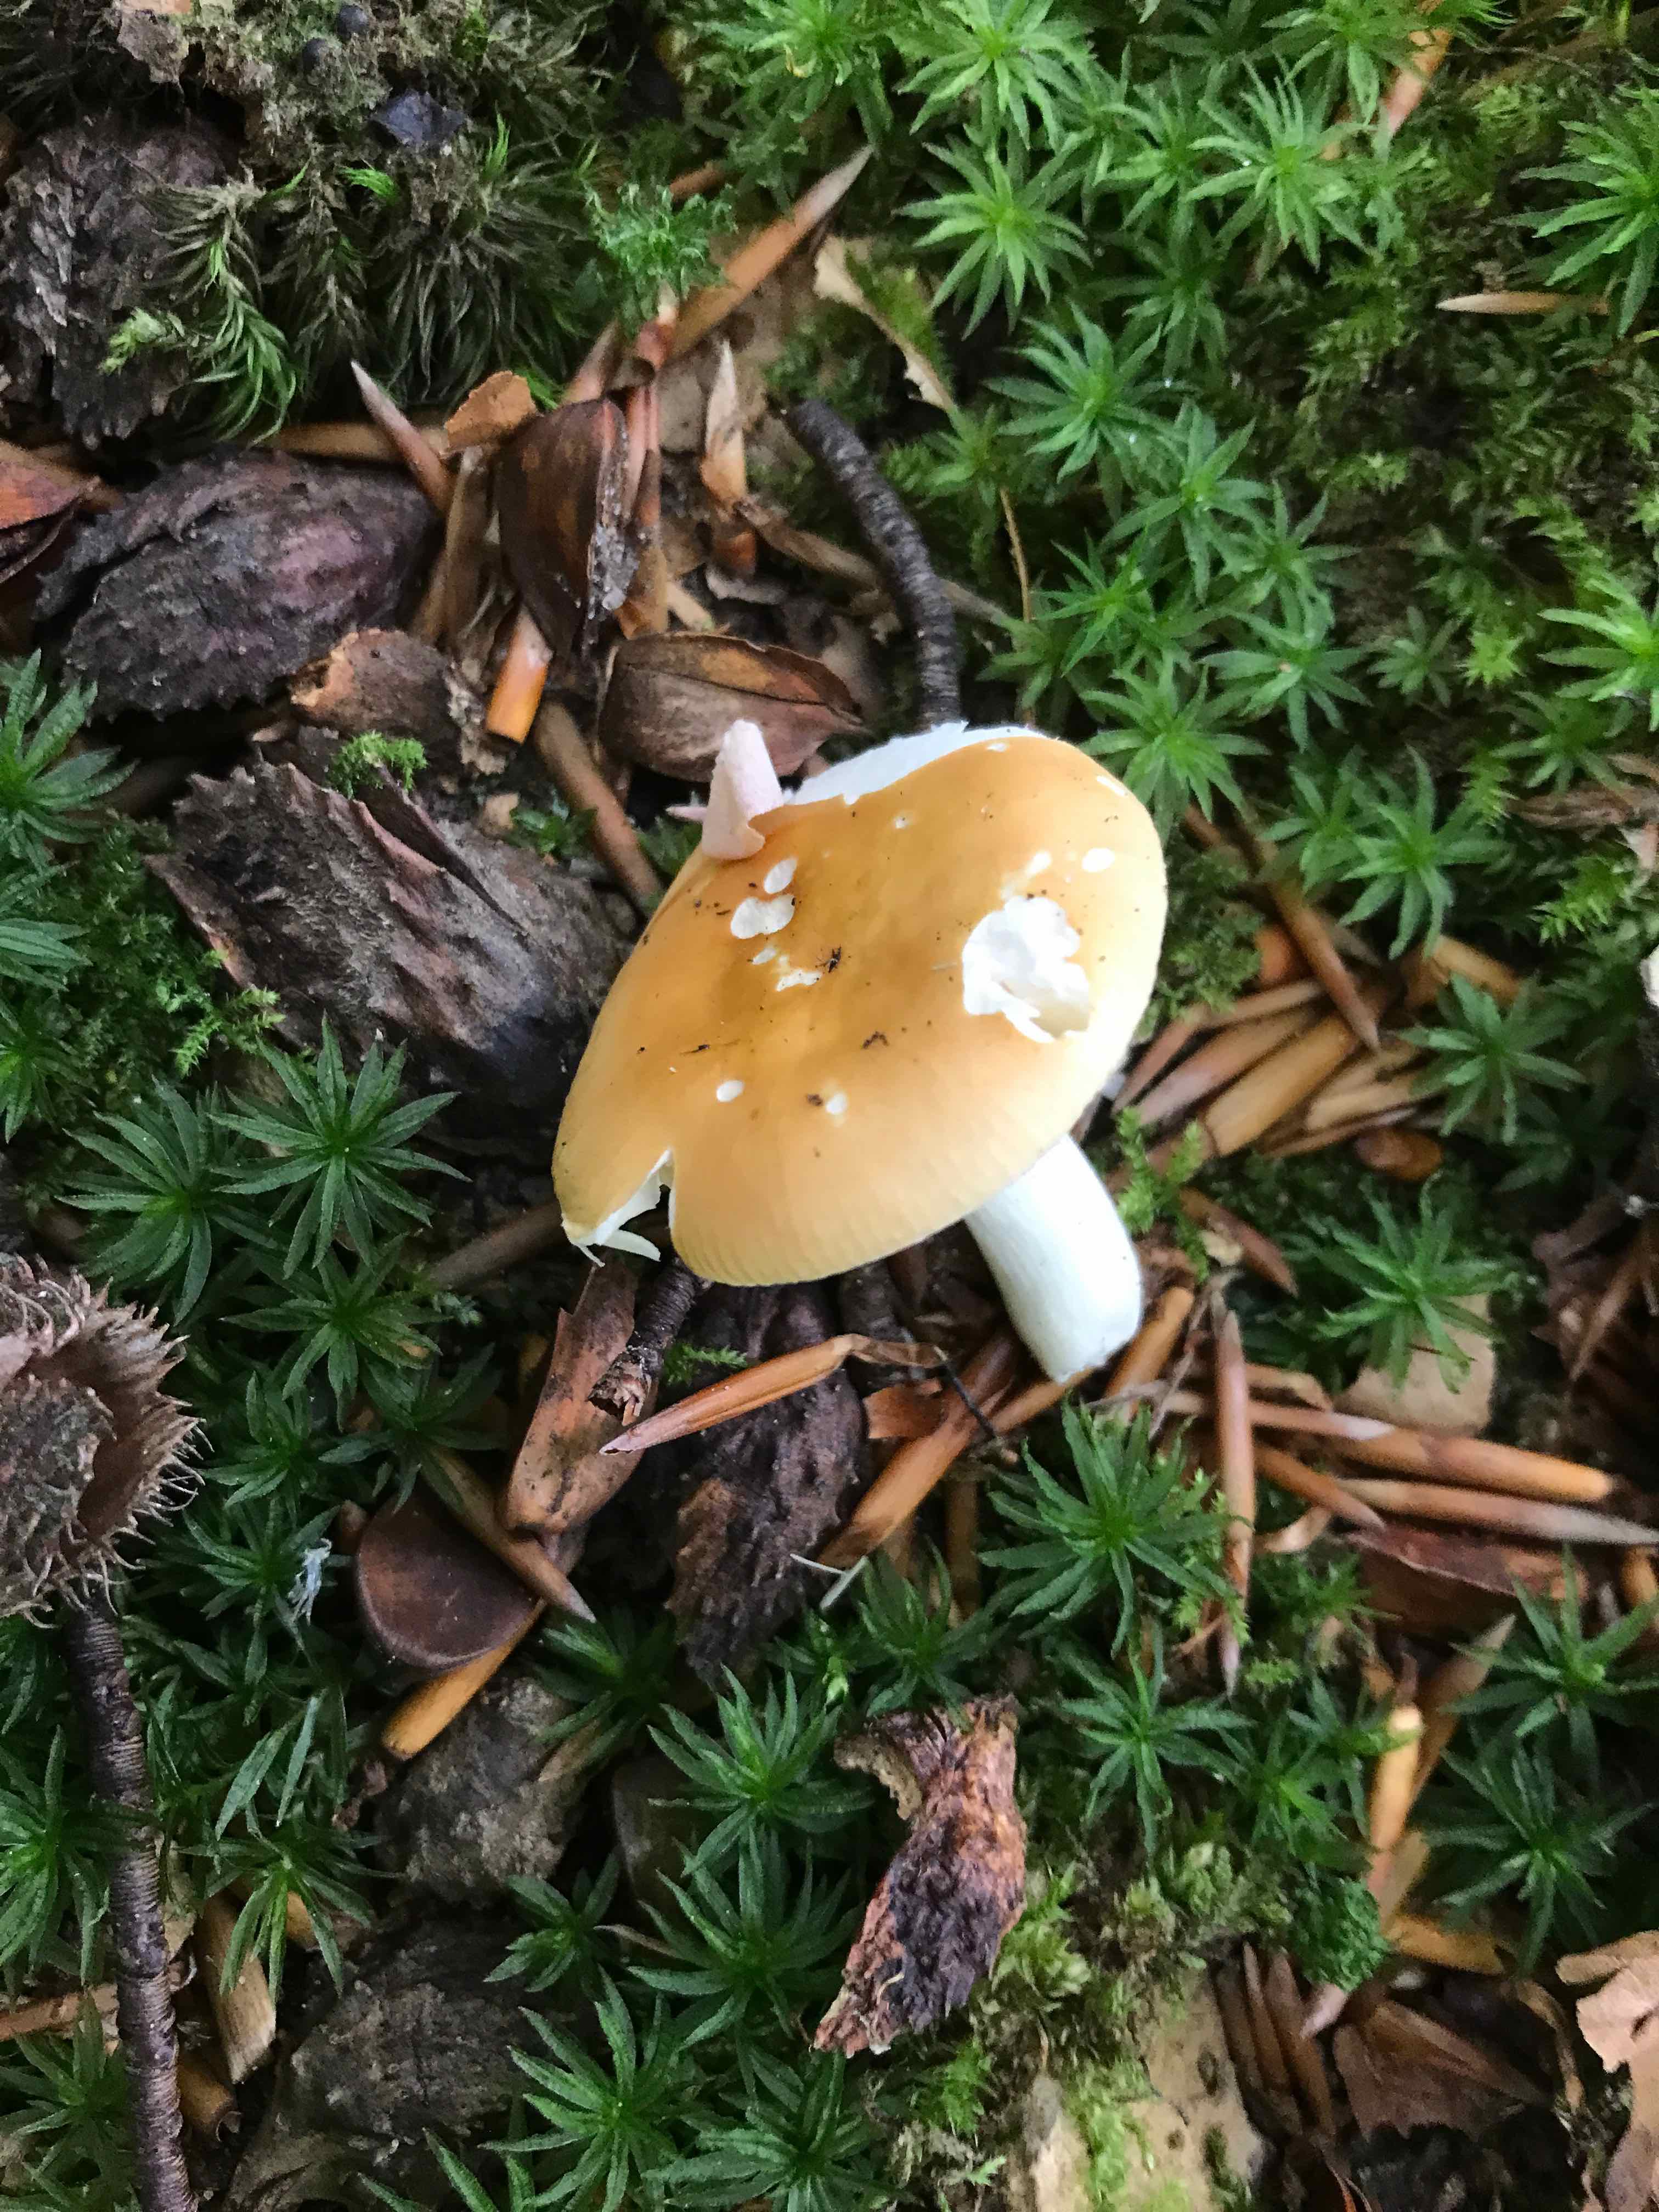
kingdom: Fungi
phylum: Basidiomycota
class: Agaricomycetes
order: Russulales
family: Russulaceae
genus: Russula
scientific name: Russula risigallina
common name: abrikos-skørhat
